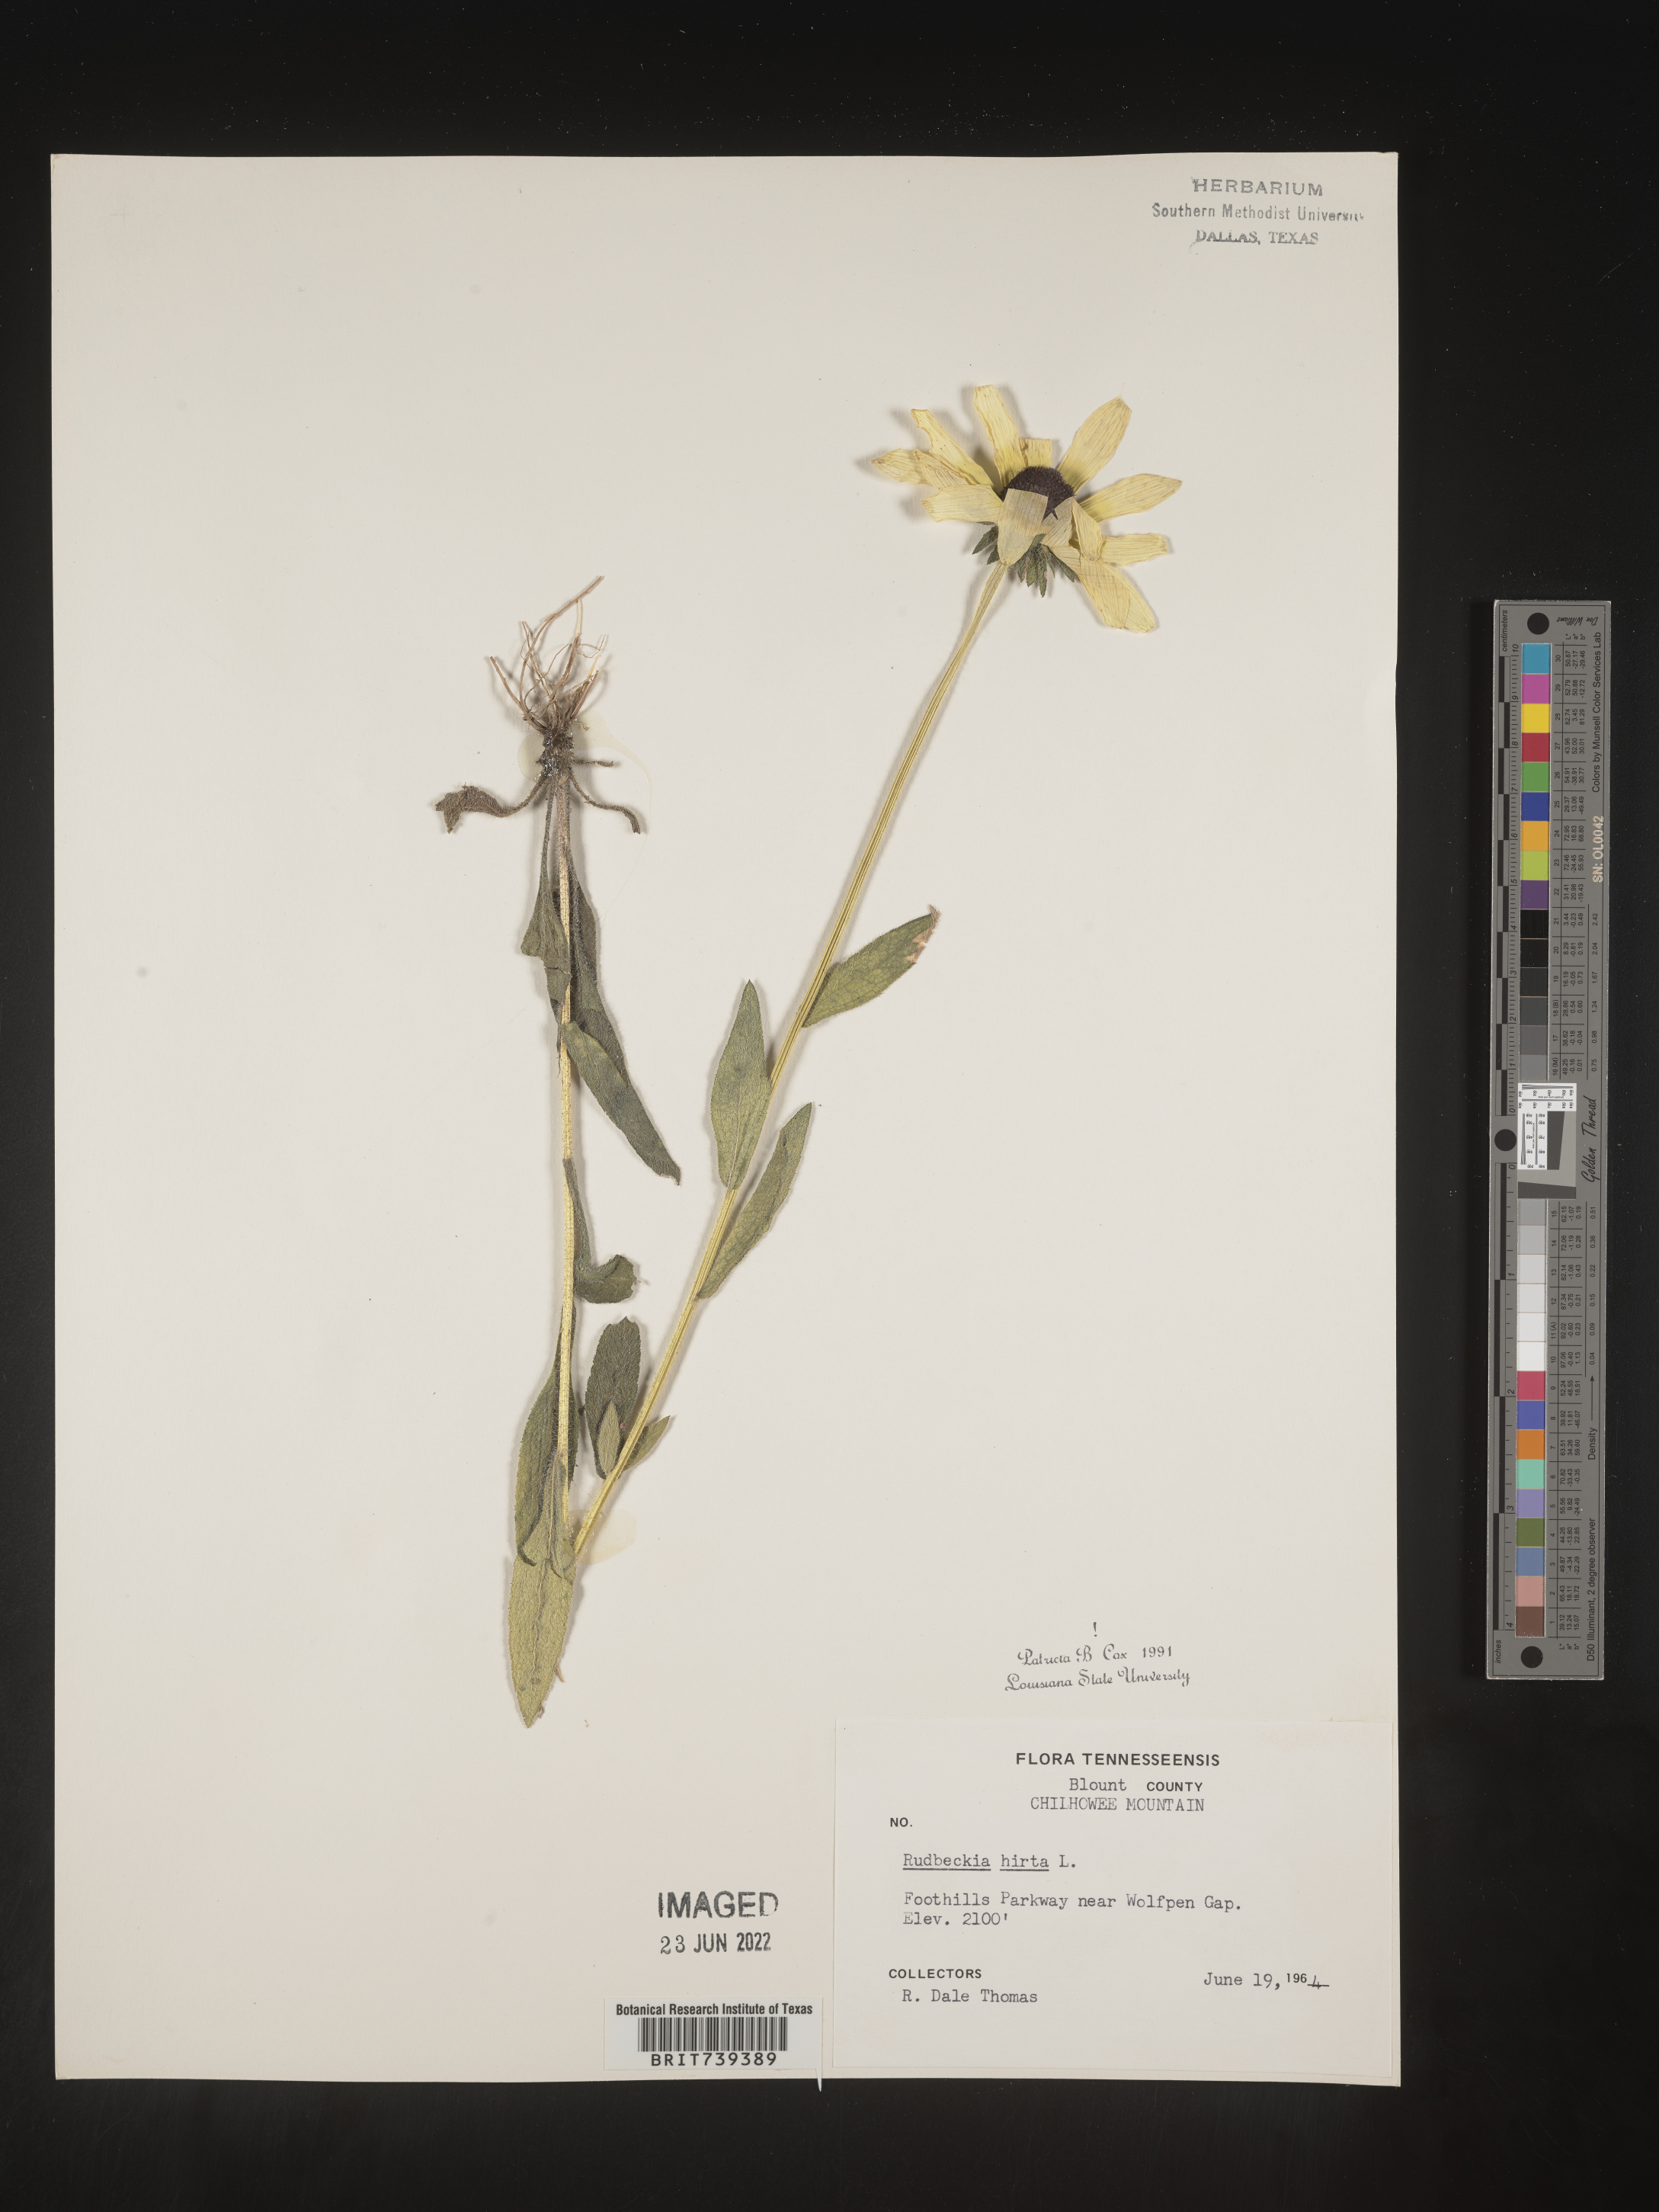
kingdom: Plantae
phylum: Tracheophyta
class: Magnoliopsida
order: Asterales
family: Asteraceae
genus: Rudbeckia
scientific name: Rudbeckia hirta
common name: Black-eyed-susan
